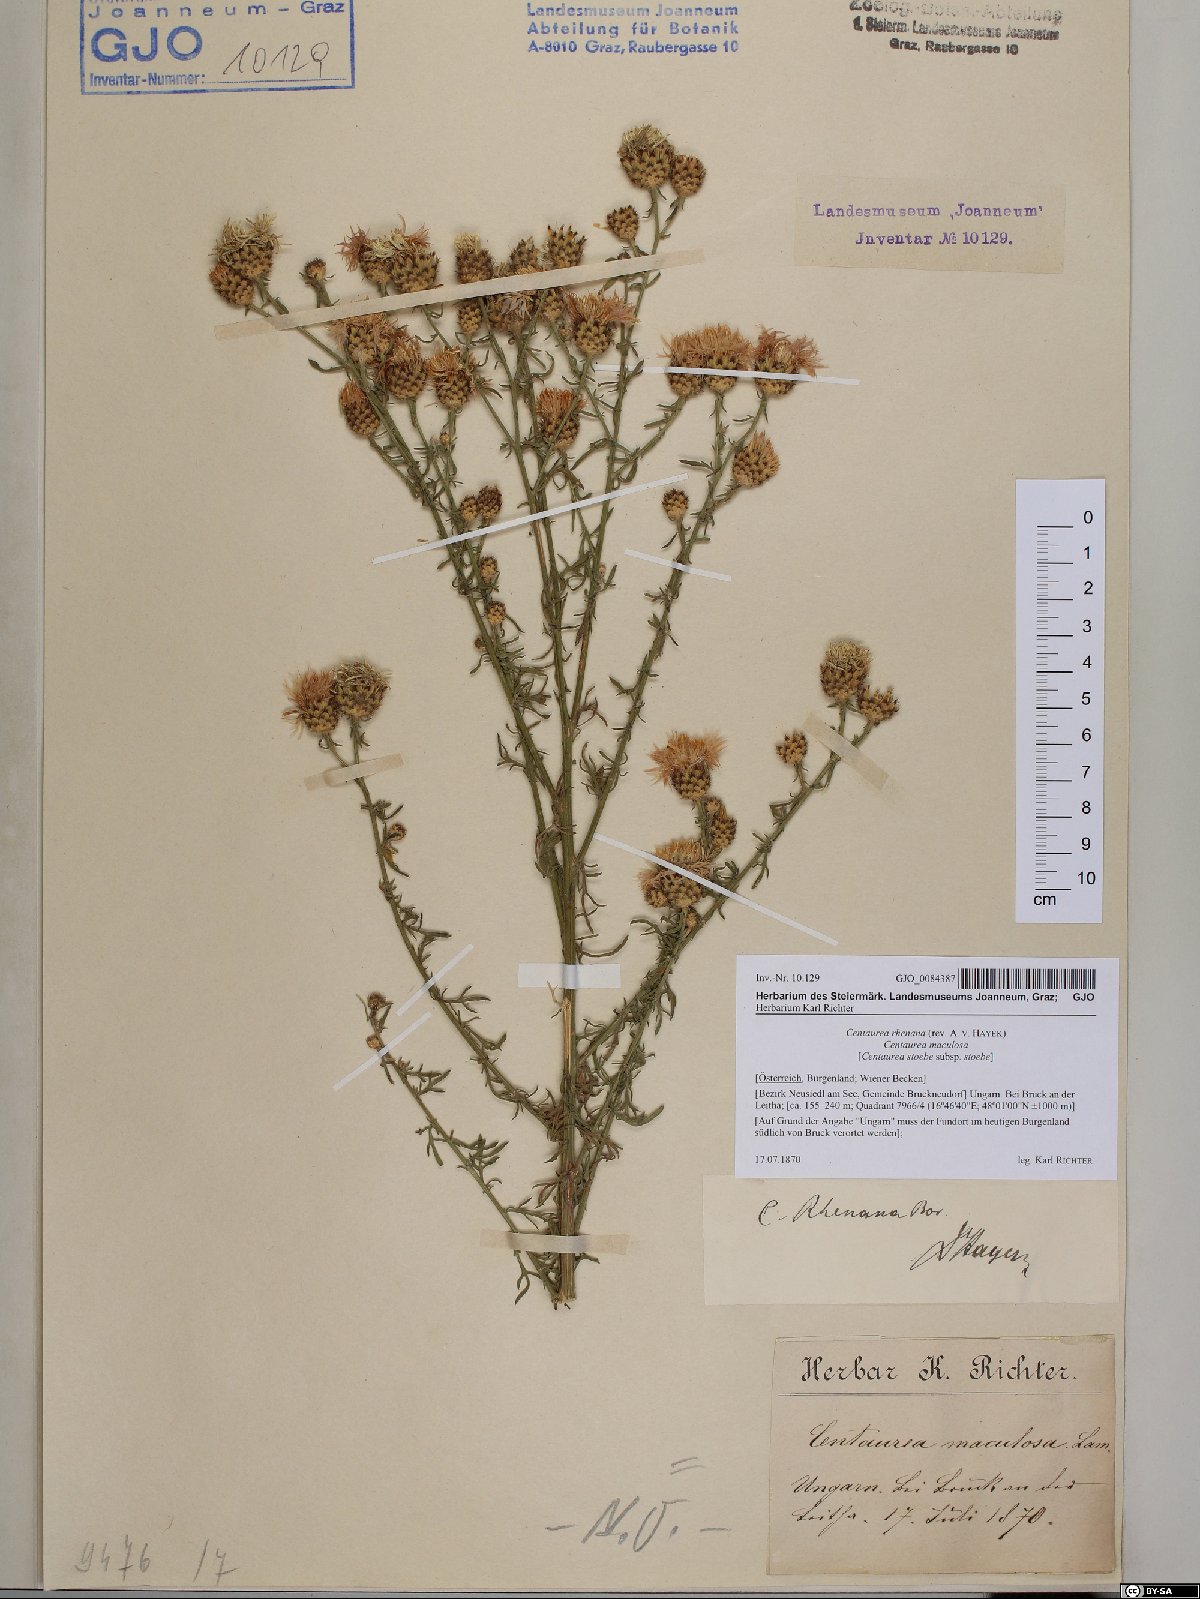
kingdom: Plantae
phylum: Tracheophyta
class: Magnoliopsida
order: Asterales
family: Asteraceae
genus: Centaurea
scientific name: Centaurea stoebe
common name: Spotted knapweed
